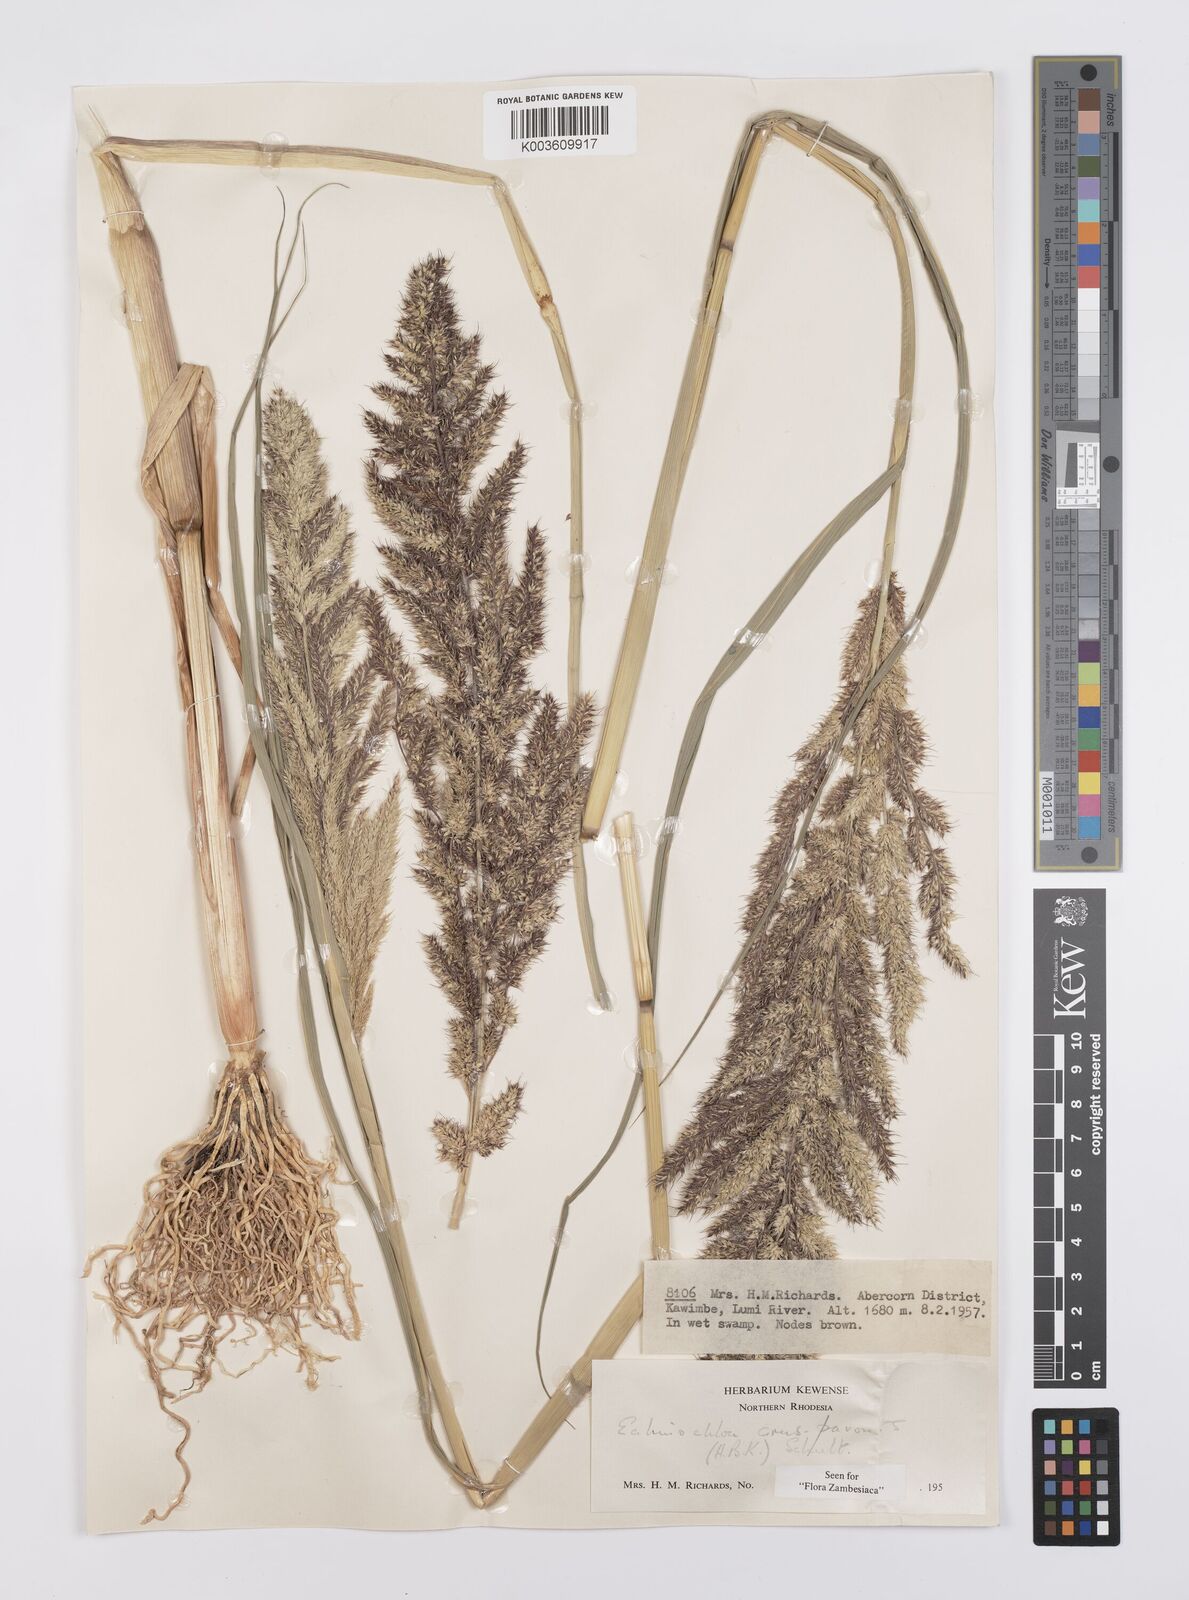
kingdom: Plantae
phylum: Tracheophyta
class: Liliopsida
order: Poales
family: Poaceae
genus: Echinochloa
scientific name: Echinochloa crus-pavonis
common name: Gulf cockspur grass
